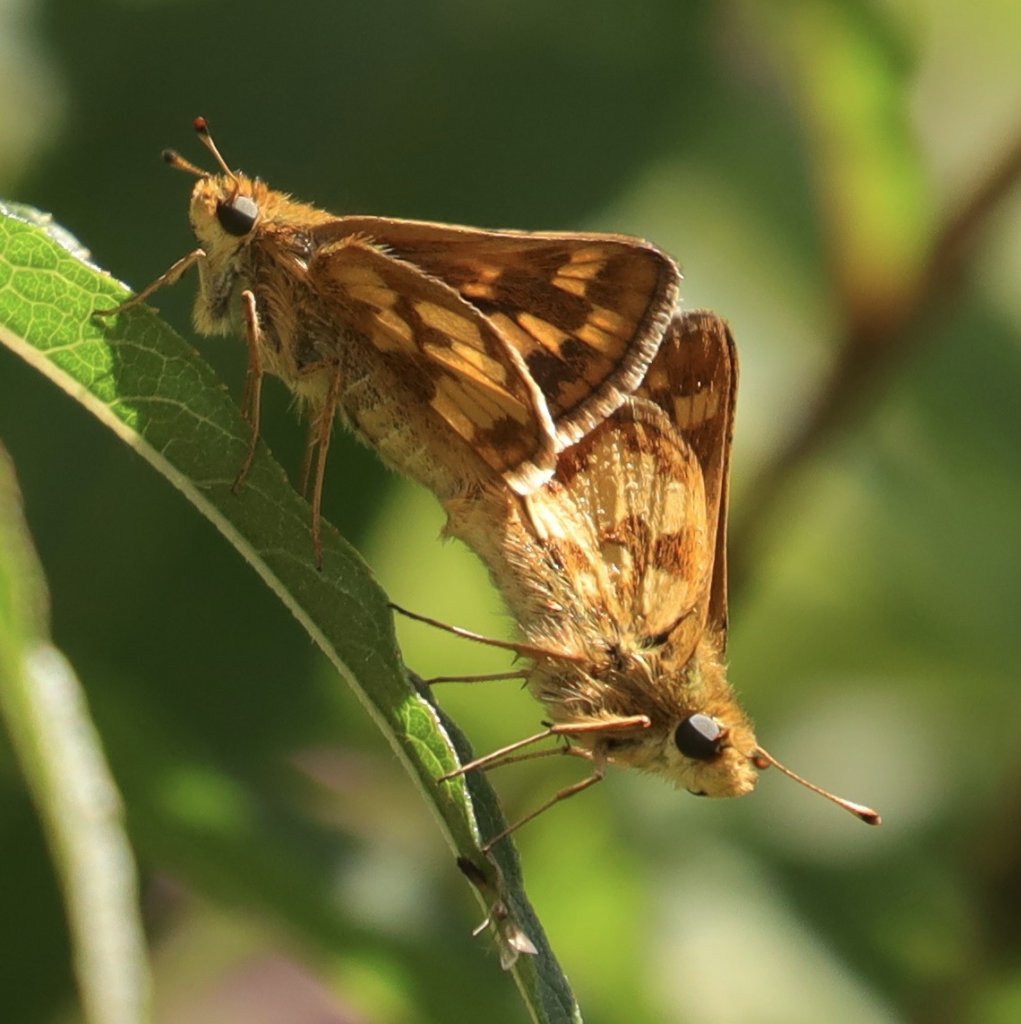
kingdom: Animalia
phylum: Arthropoda
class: Insecta
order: Lepidoptera
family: Hesperiidae
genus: Polites
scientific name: Polites coras
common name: Peck's Skipper
